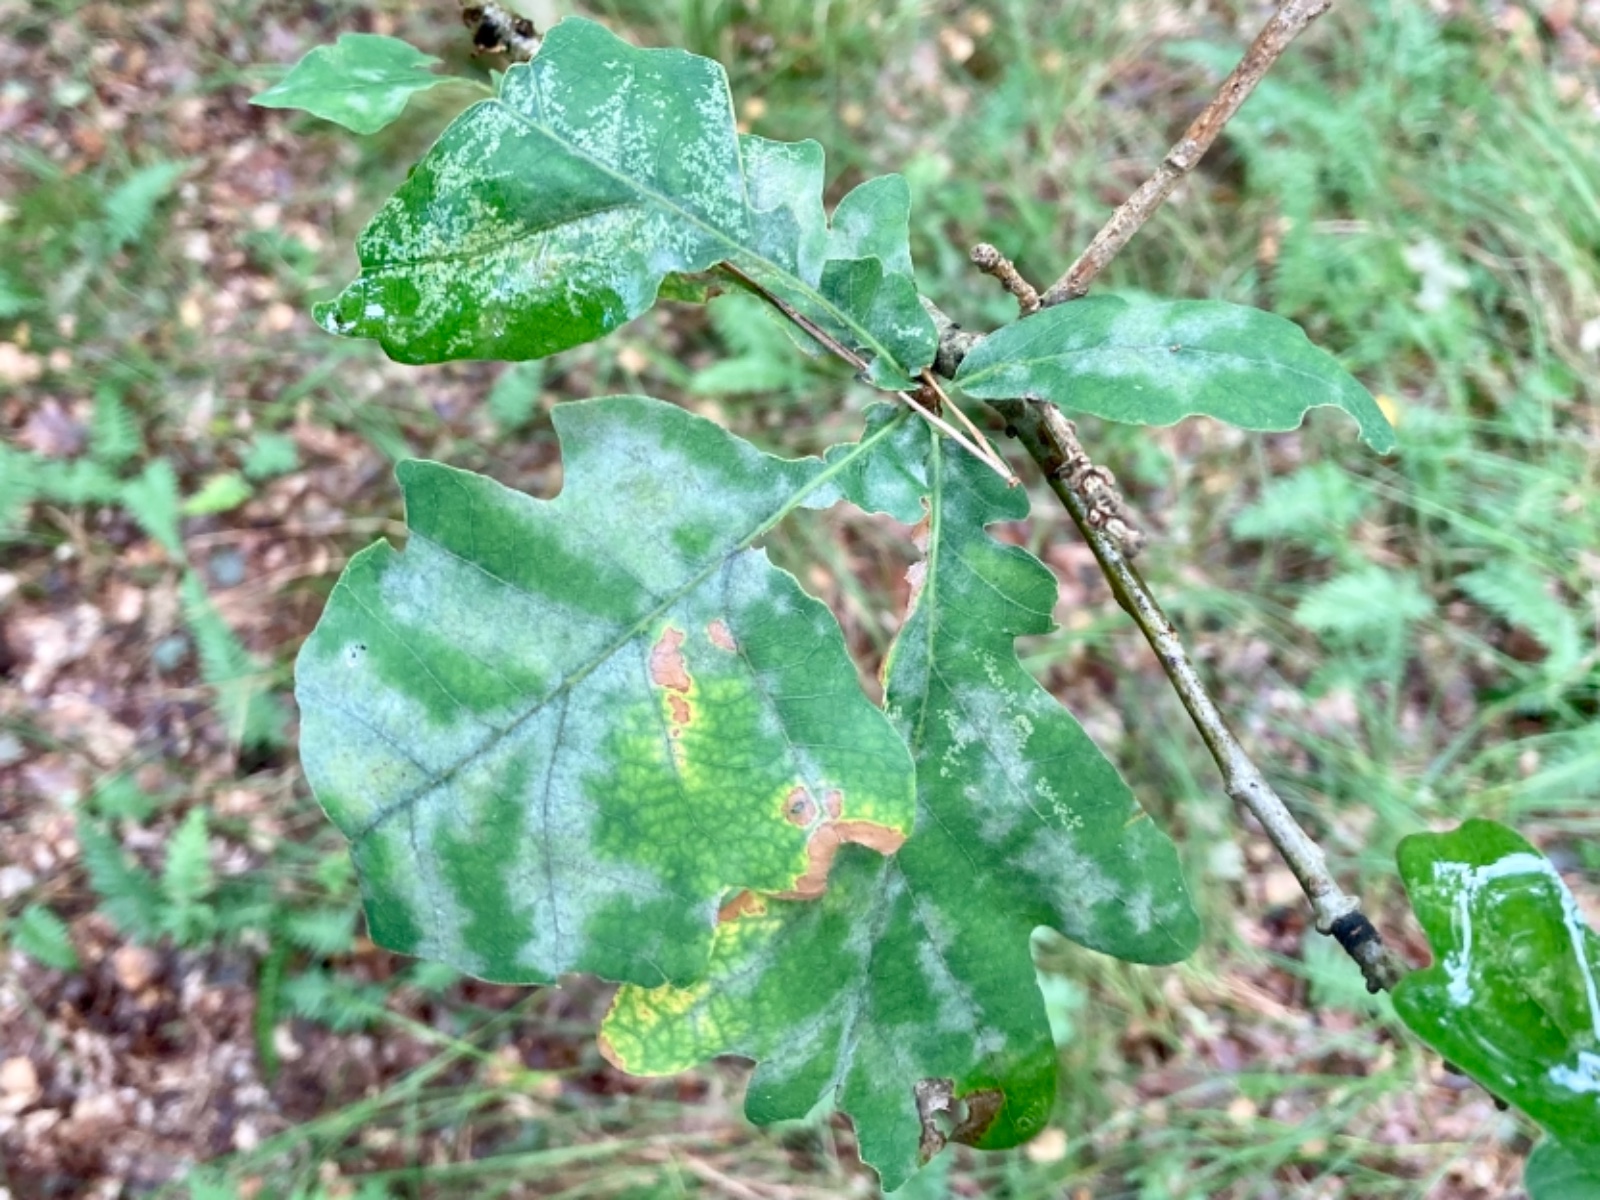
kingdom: Fungi
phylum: Ascomycota
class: Leotiomycetes
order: Helotiales
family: Erysiphaceae
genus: Erysiphe
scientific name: Erysiphe alphitoides
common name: ege-meldug
